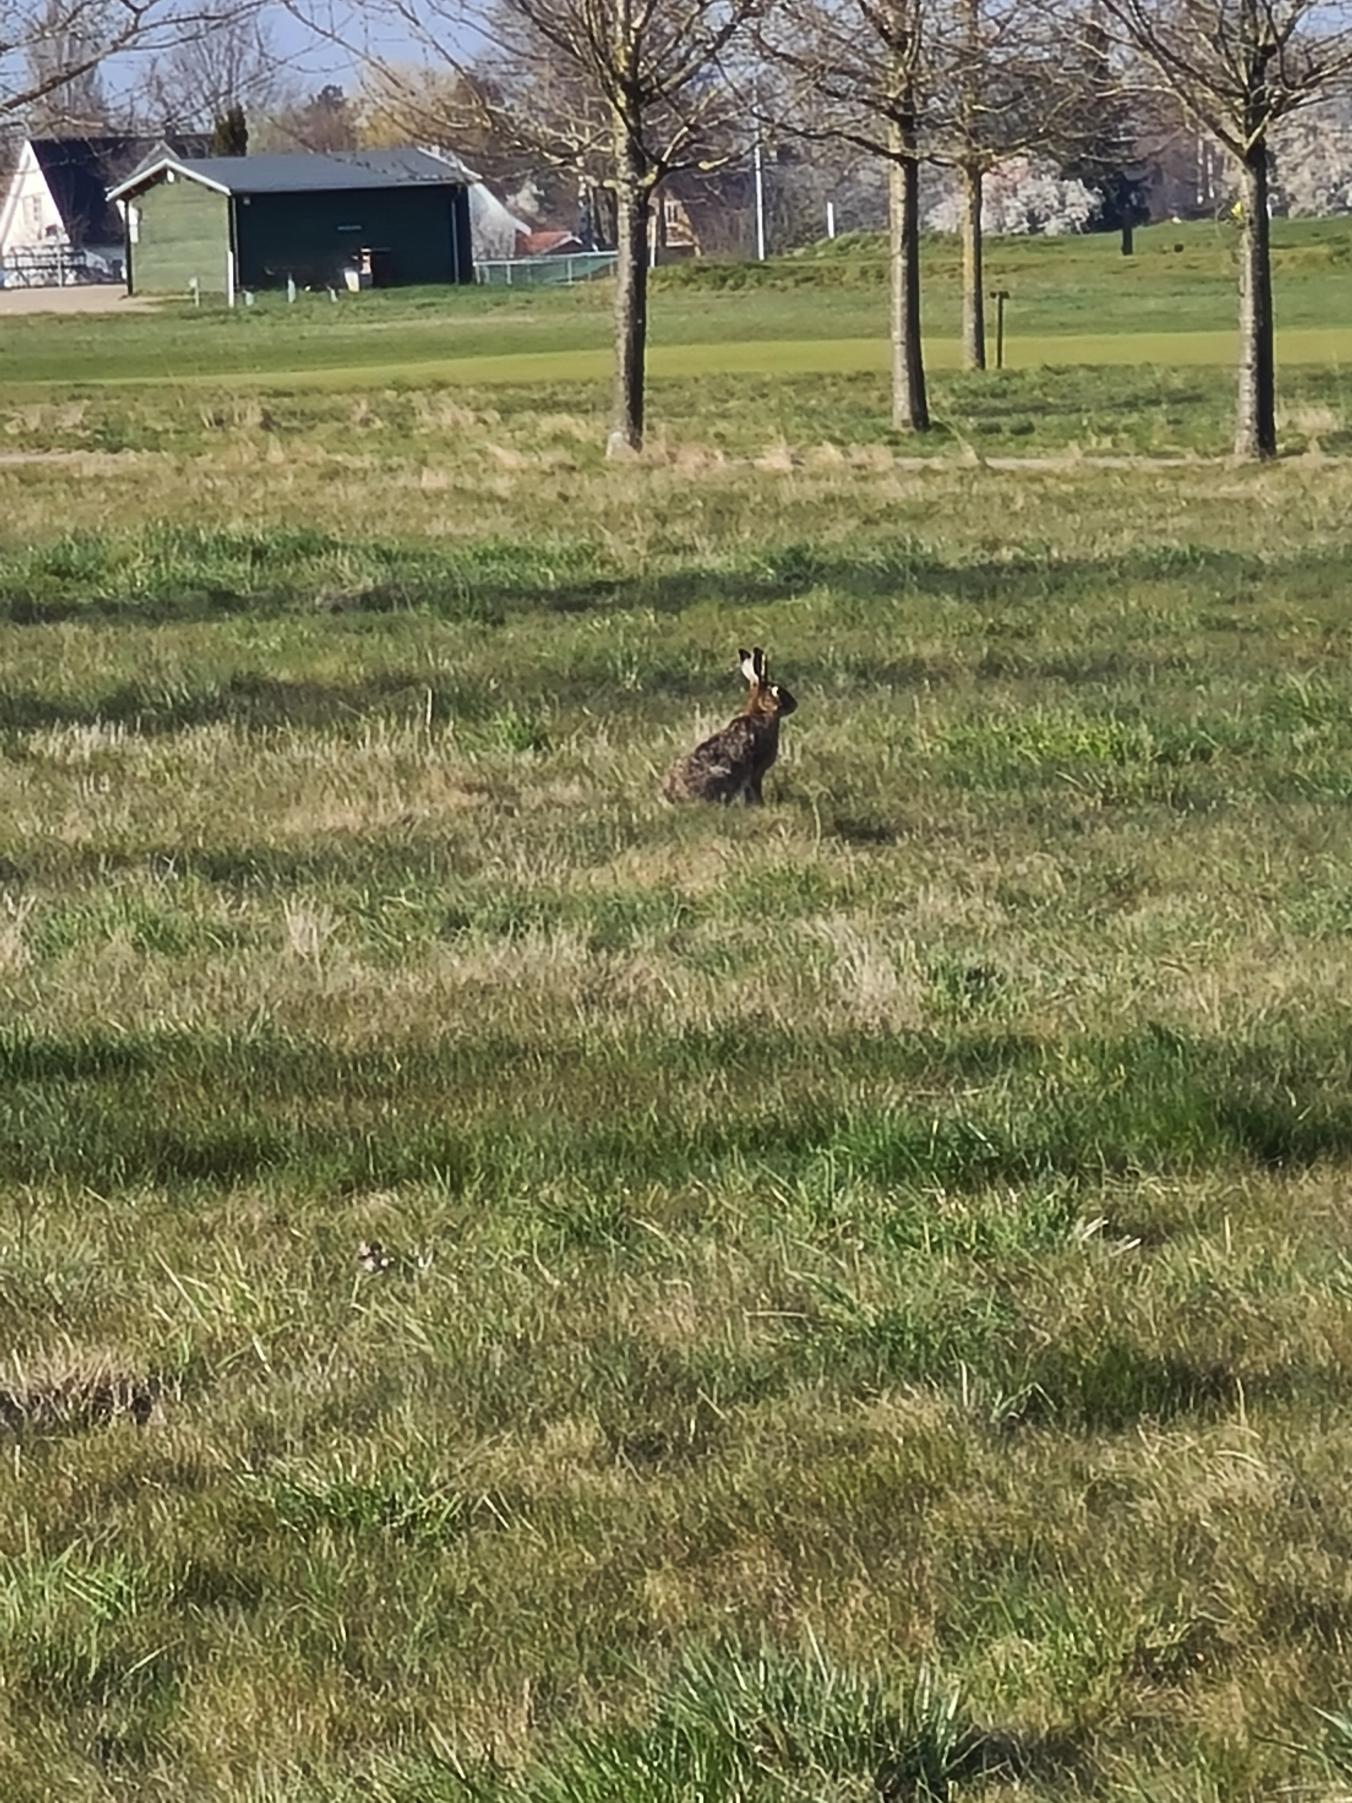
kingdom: Animalia
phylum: Chordata
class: Mammalia
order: Lagomorpha
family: Leporidae
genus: Lepus
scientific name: Lepus europaeus
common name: Hare
